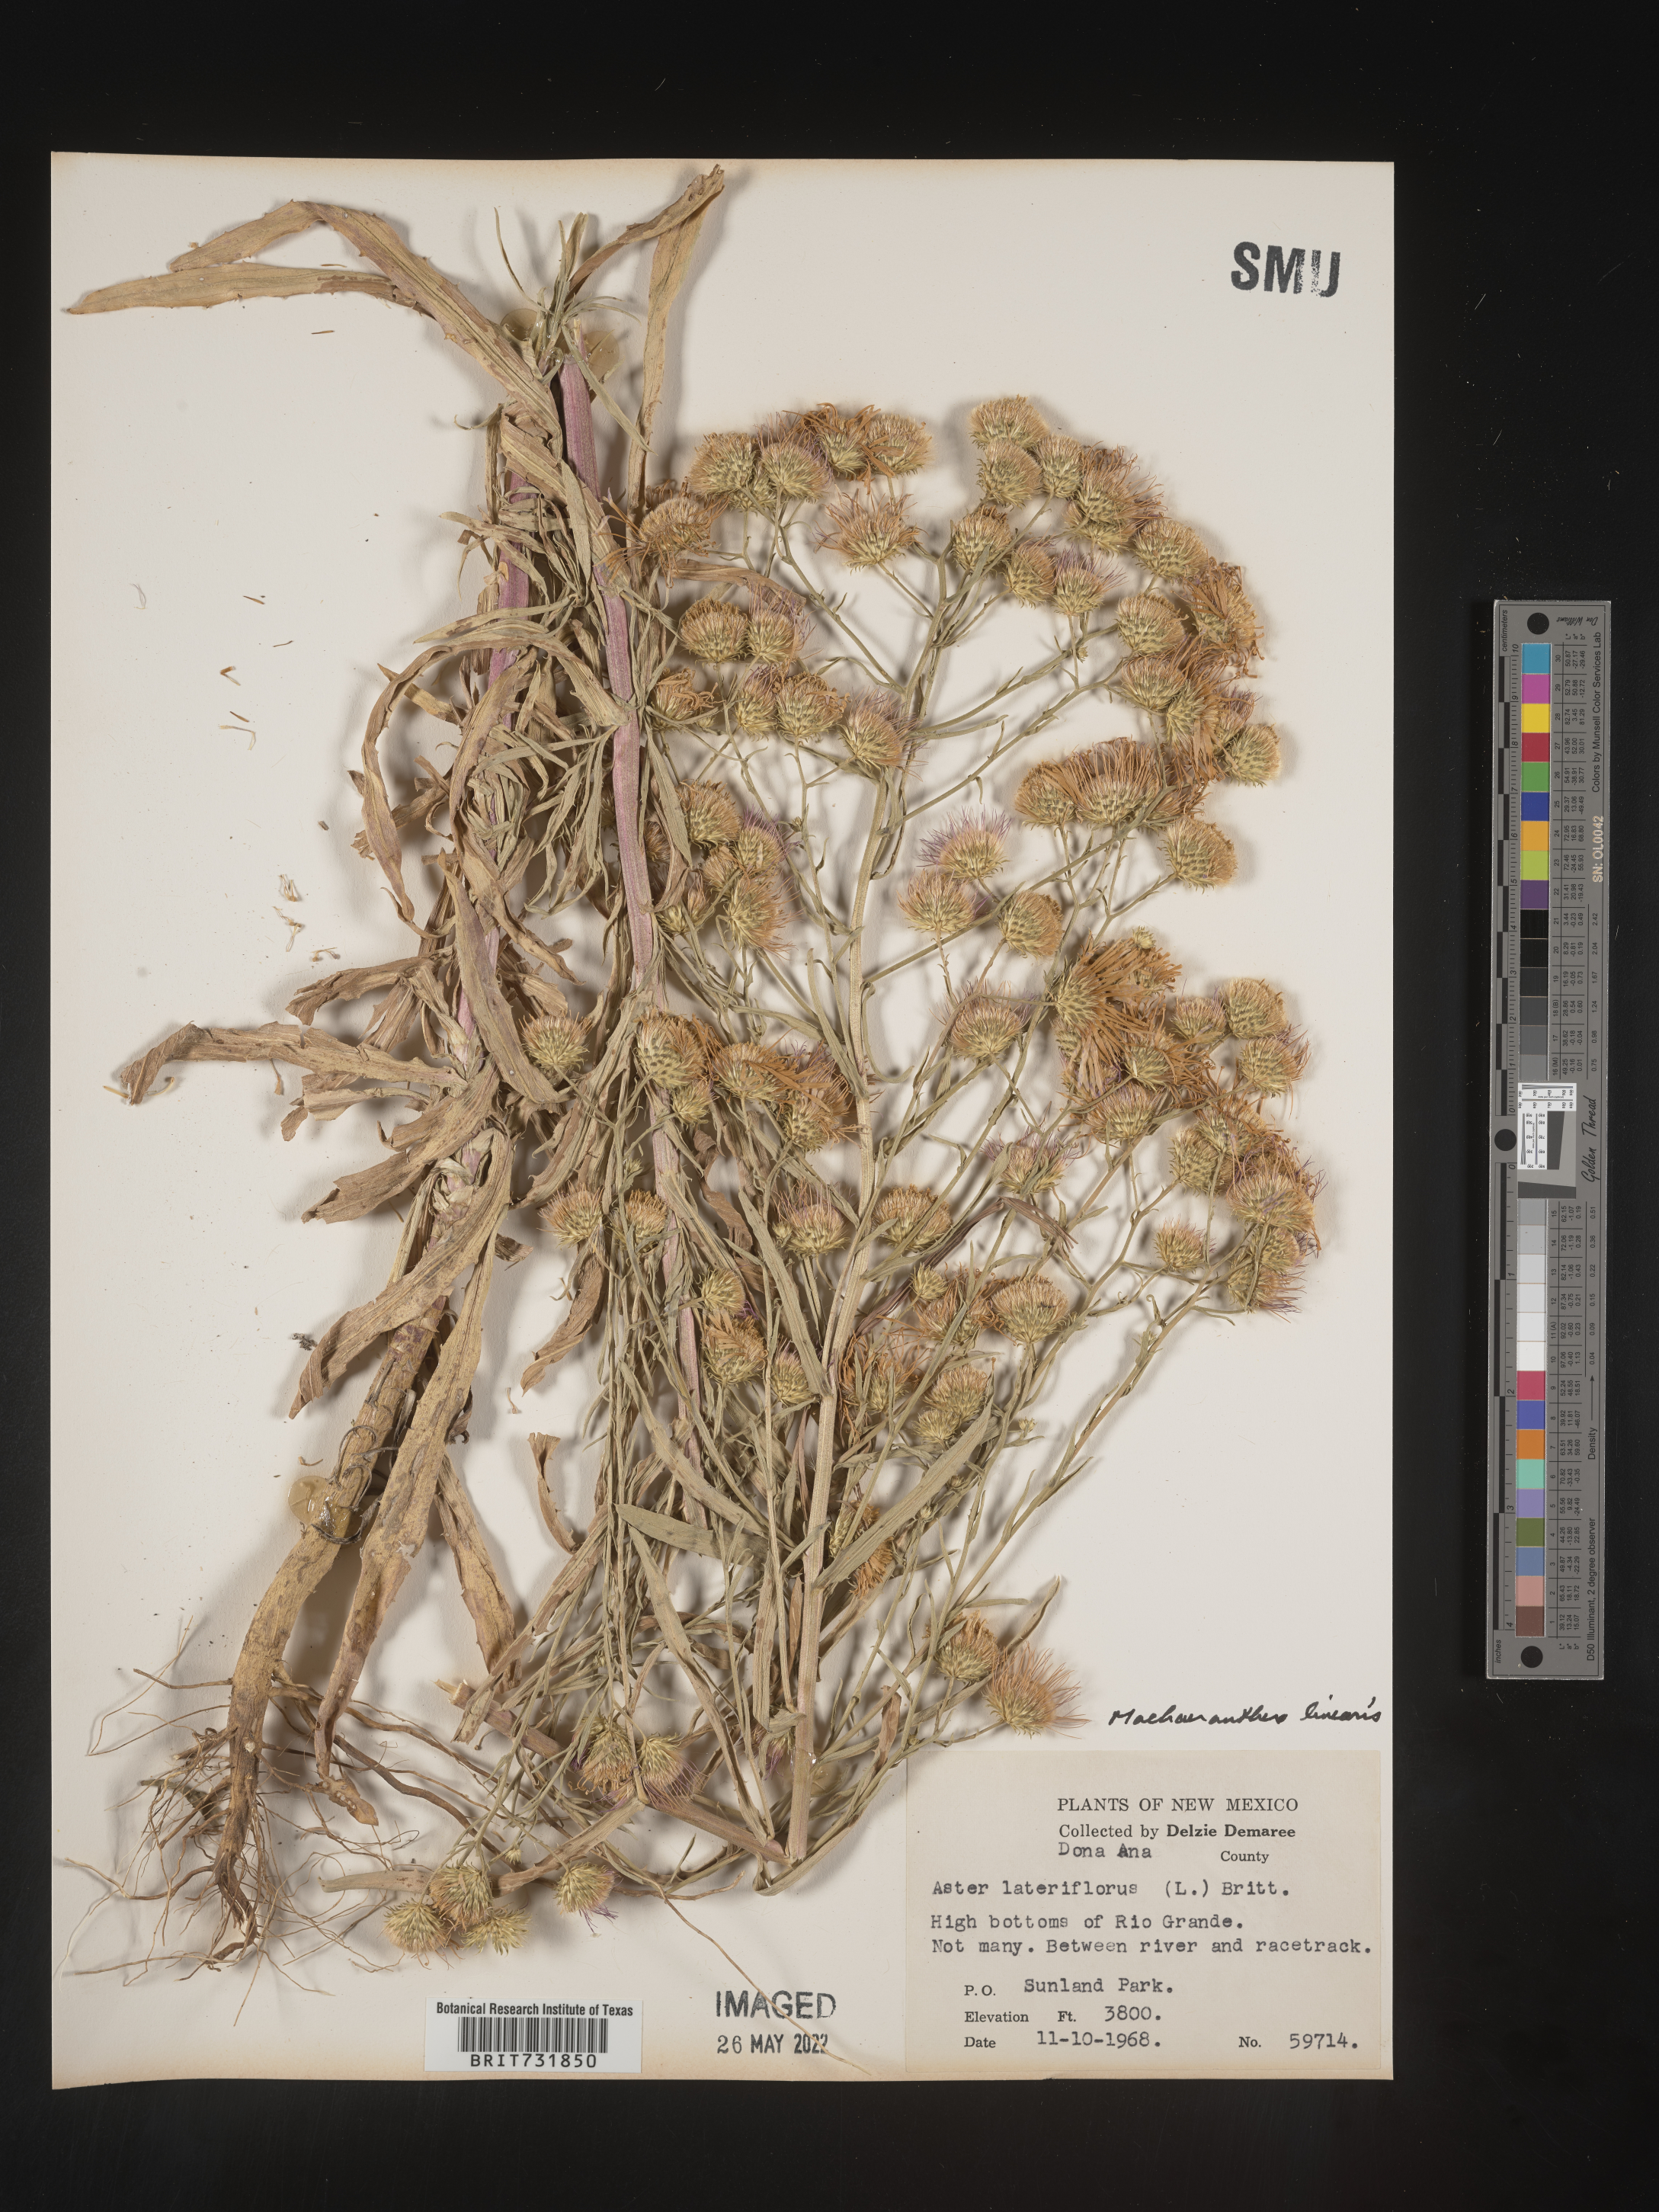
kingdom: Plantae
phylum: Tracheophyta
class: Magnoliopsida
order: Asterales
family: Asteraceae
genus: Dieteria
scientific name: Dieteria canescens
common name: Hoary-aster
